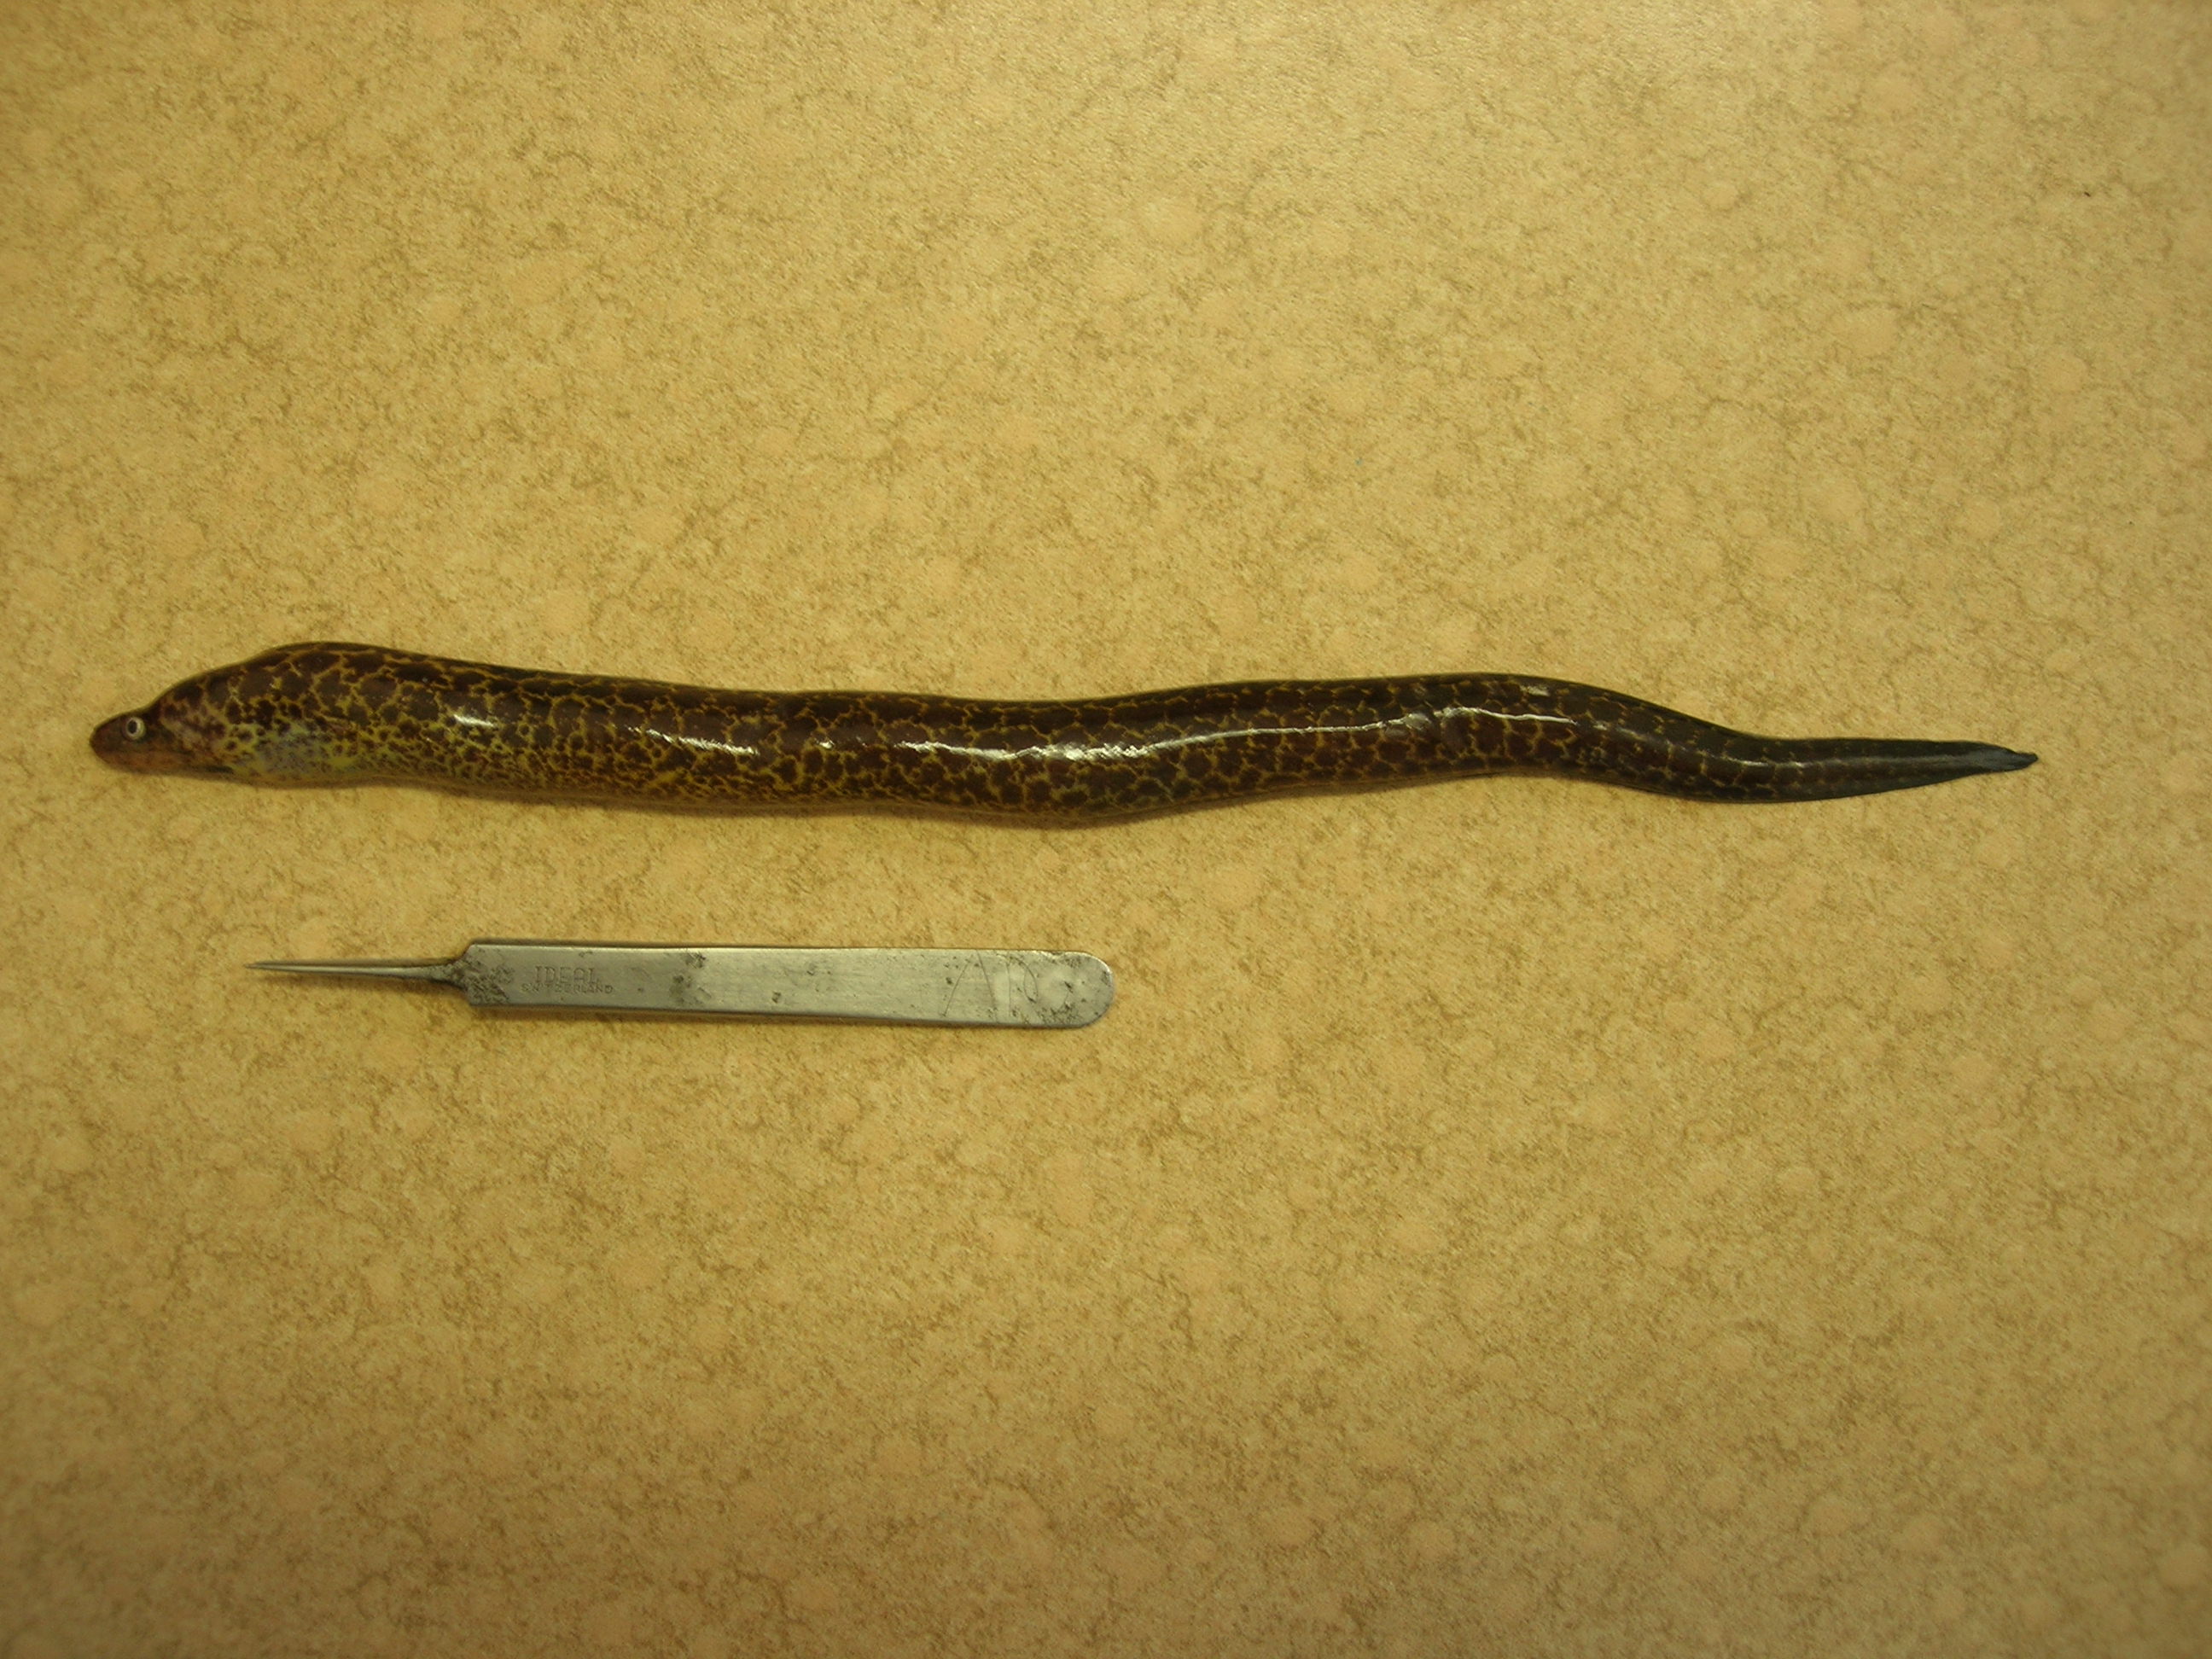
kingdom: Animalia
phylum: Chordata
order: Anguilliformes
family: Muraenidae
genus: Gymnothorax
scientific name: Gymnothorax undulatus
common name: Leopard moray
